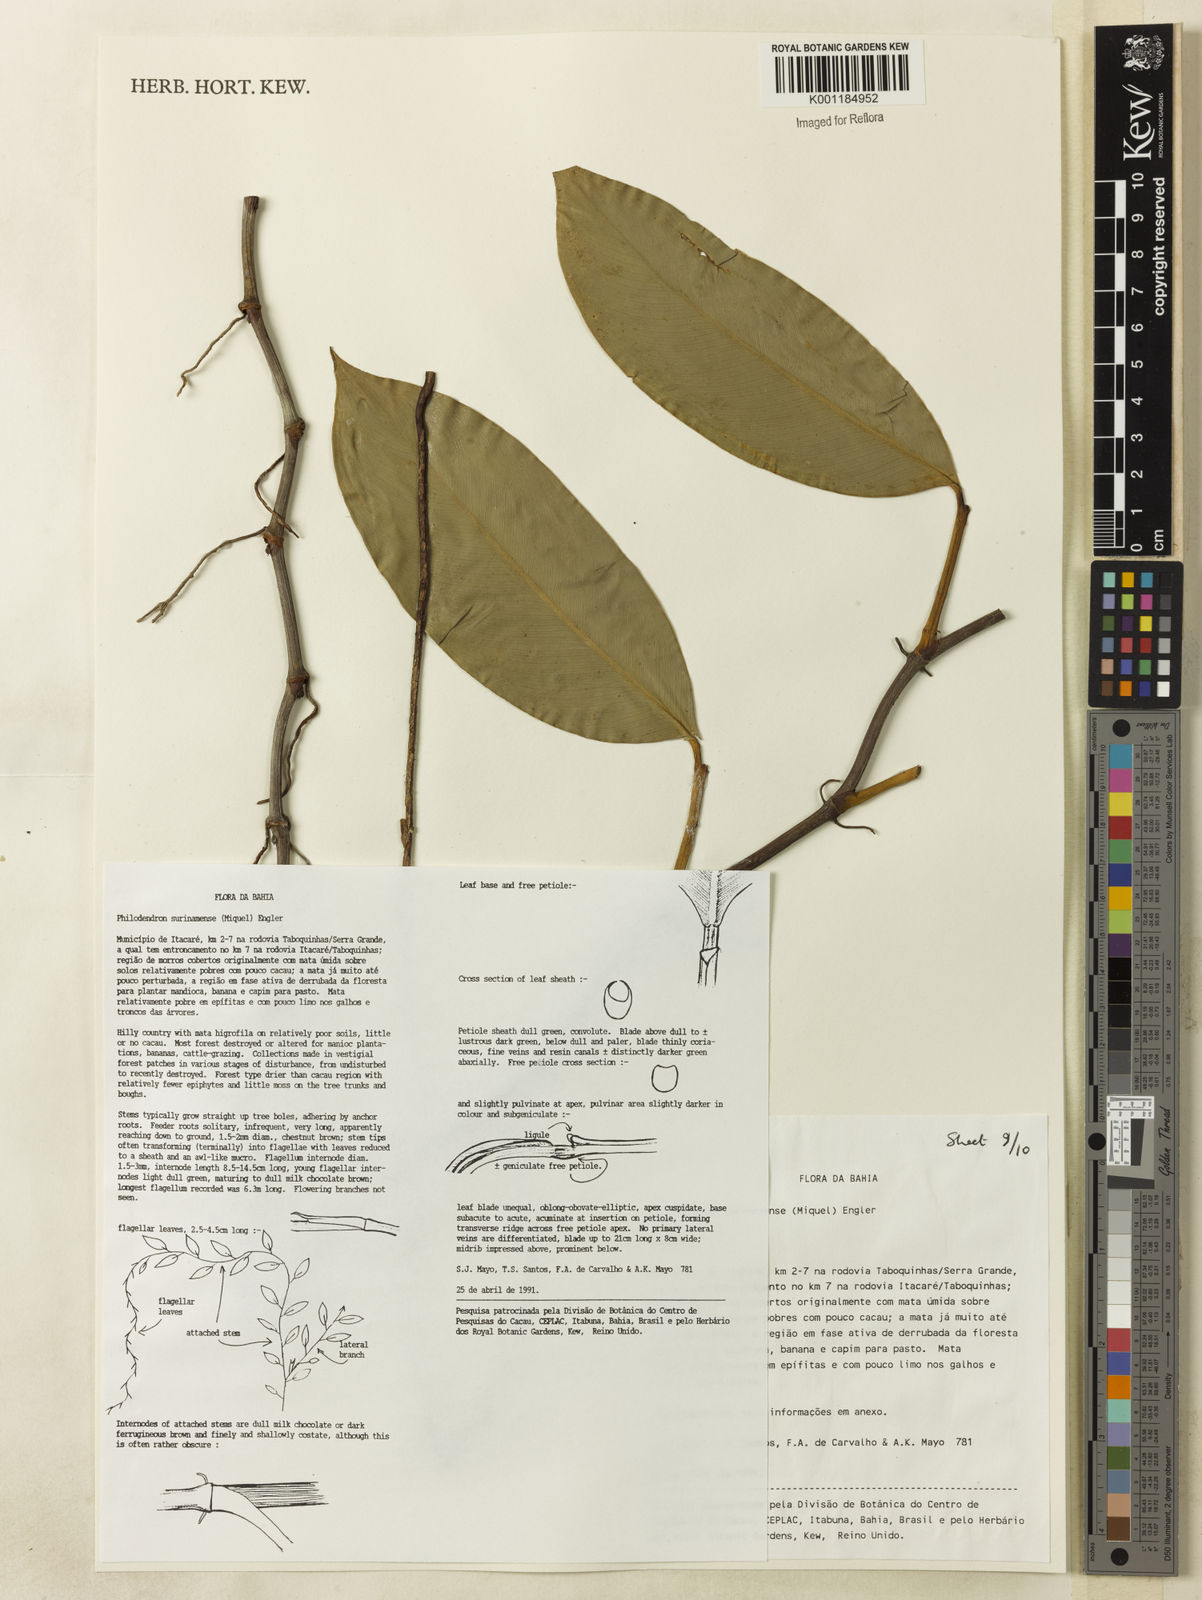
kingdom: Plantae
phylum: Tracheophyta
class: Liliopsida
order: Alismatales
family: Araceae
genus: Philodendron
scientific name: Philodendron surinamense
